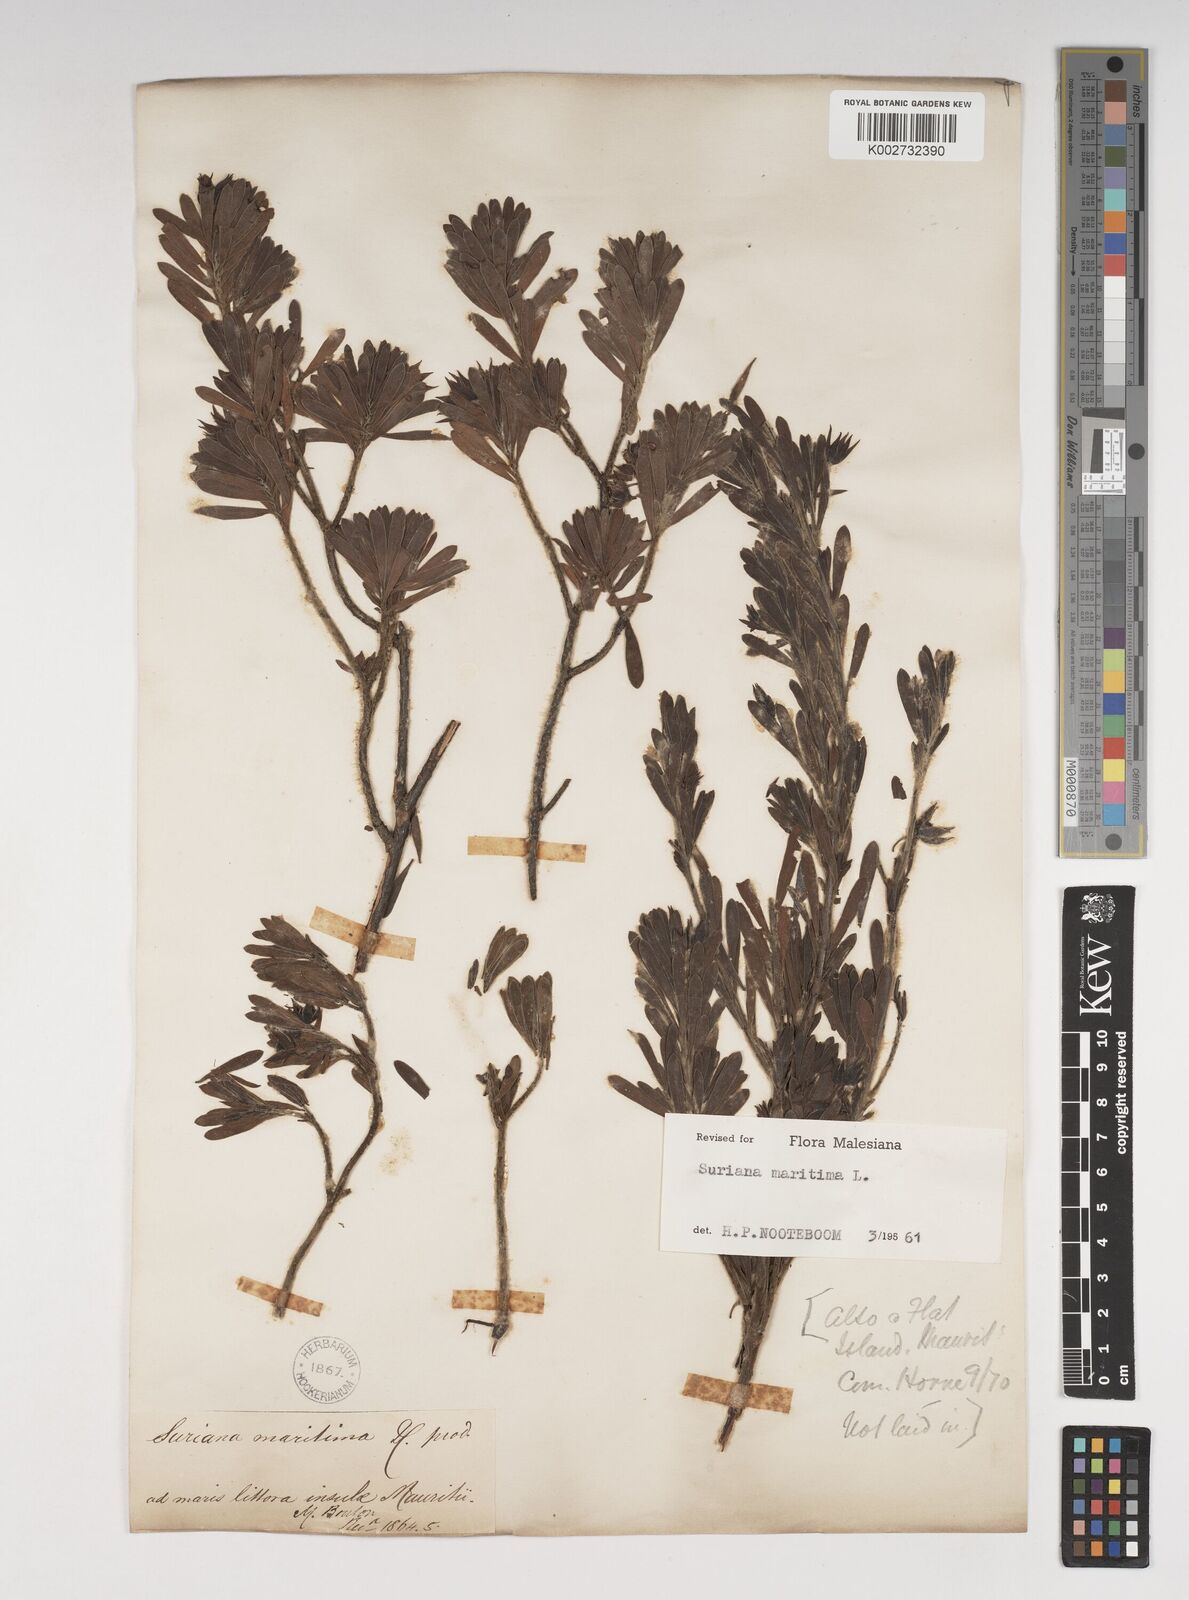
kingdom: Plantae
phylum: Tracheophyta
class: Magnoliopsida
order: Fabales
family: Surianaceae
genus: Suriana
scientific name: Suriana maritima
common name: Bay-cedar
